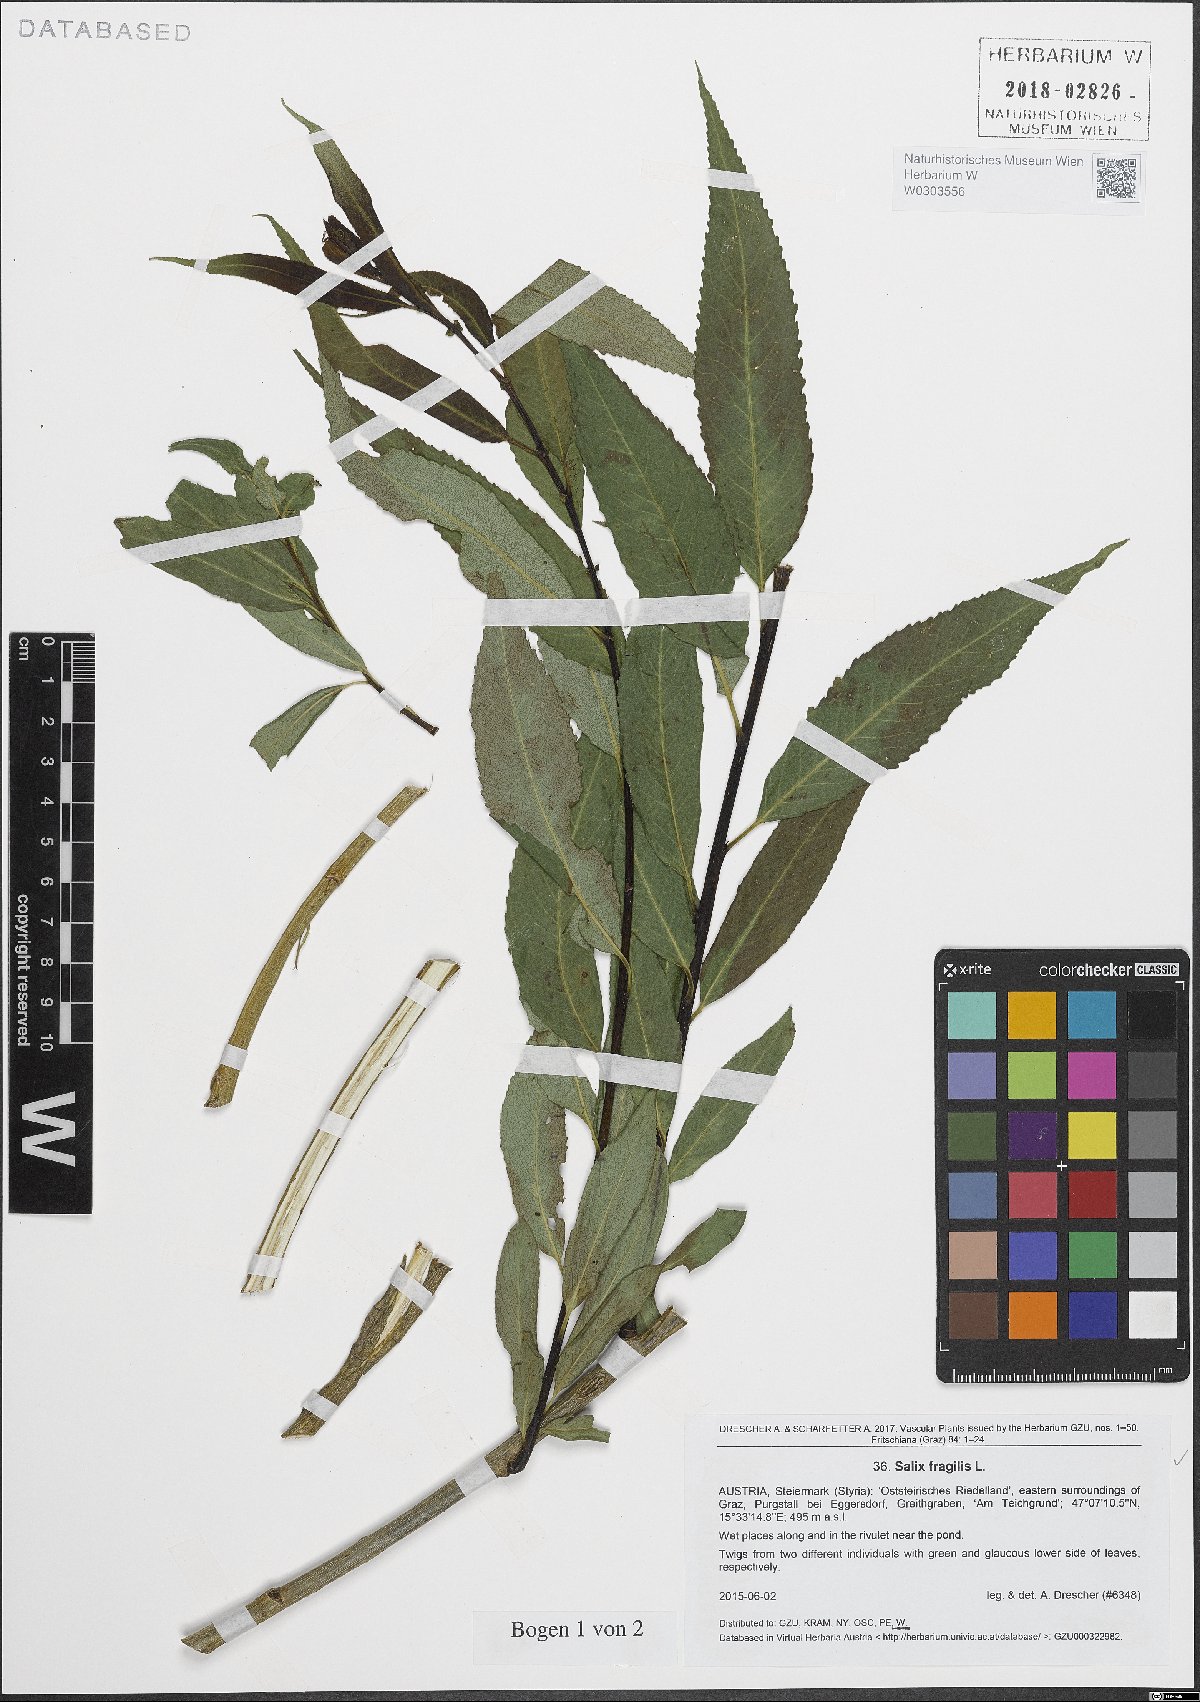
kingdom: Plantae
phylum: Tracheophyta
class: Magnoliopsida
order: Malpighiales
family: Salicaceae
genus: Salix
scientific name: Salix fragilis
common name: Crack willow
